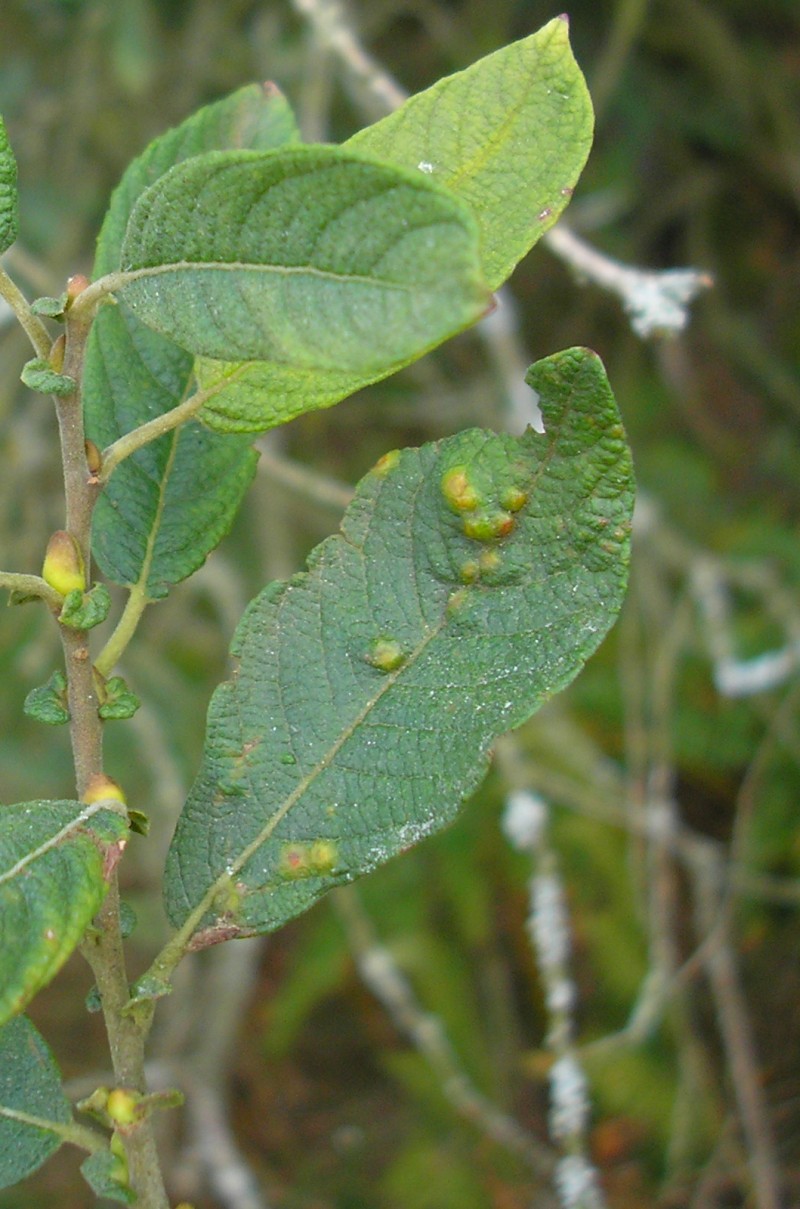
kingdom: Animalia
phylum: Arthropoda
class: Insecta
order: Diptera
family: Cecidomyiidae
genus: Iteomyia
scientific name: Iteomyia capreae
